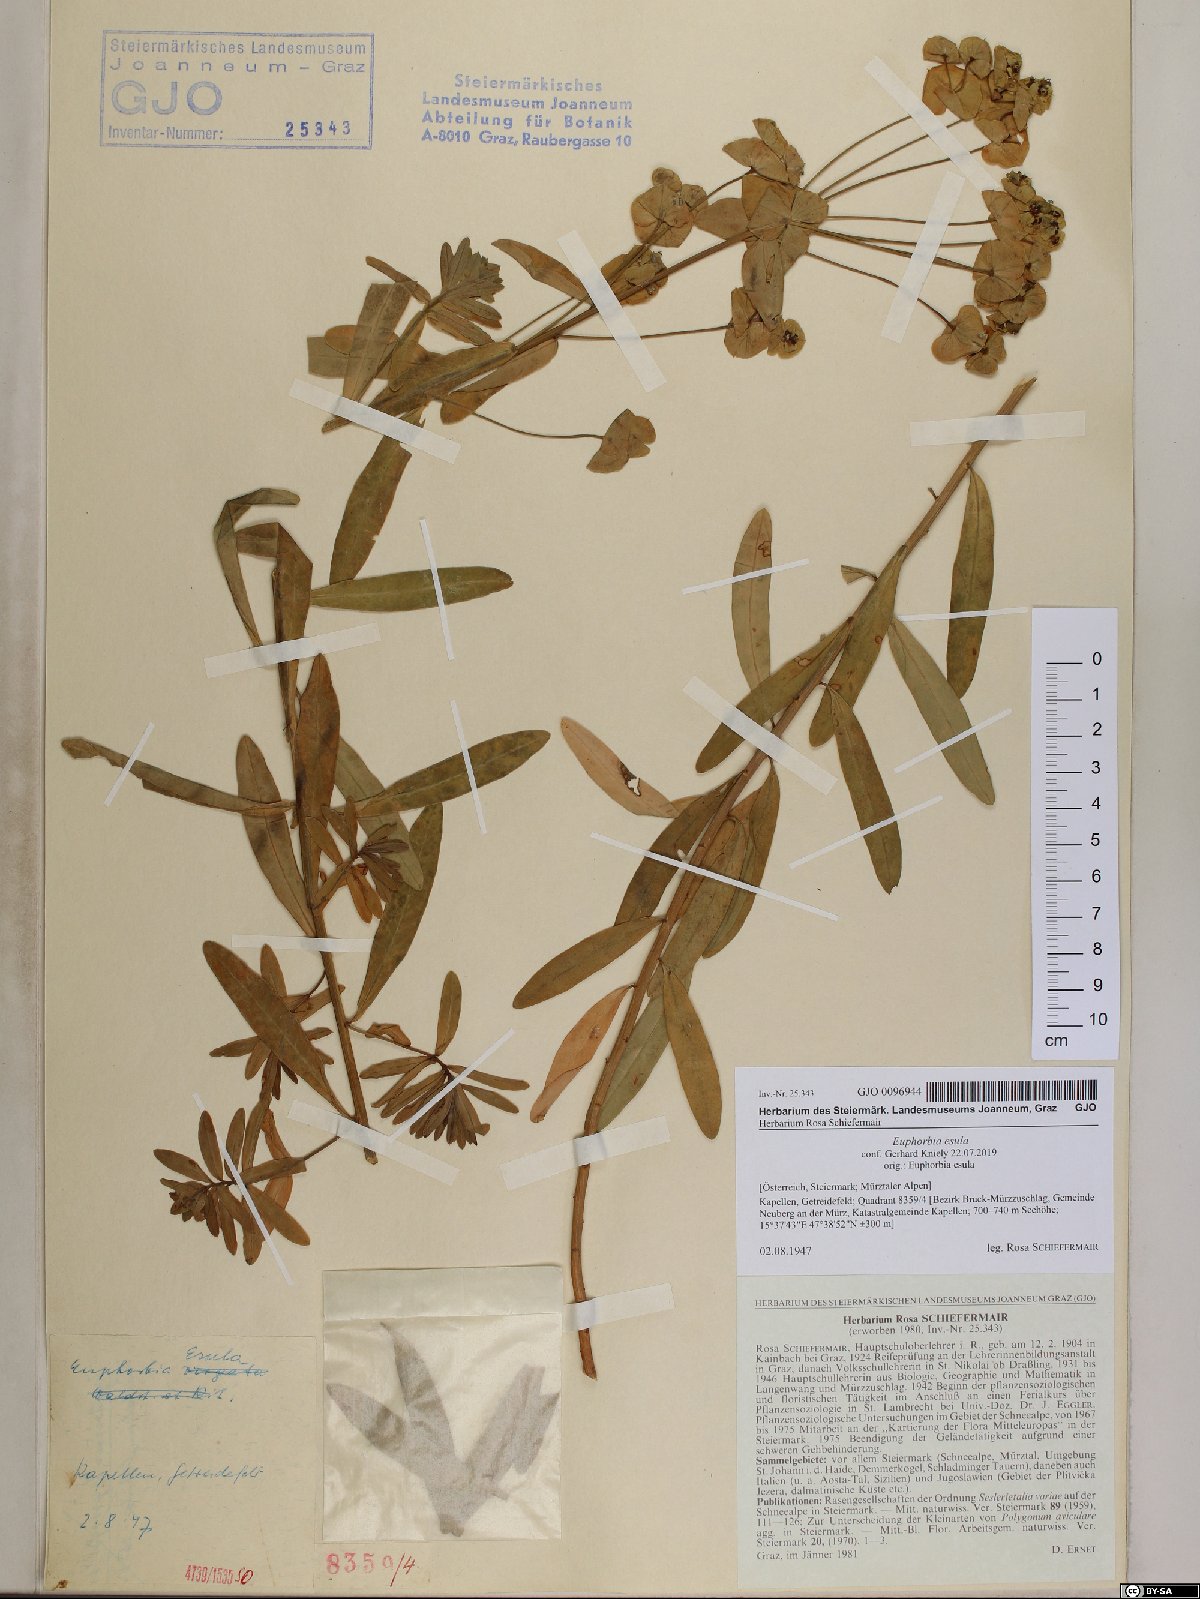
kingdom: Plantae
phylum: Tracheophyta
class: Magnoliopsida
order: Malpighiales
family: Euphorbiaceae
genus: Euphorbia
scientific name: Euphorbia esula
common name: Leafy spurge
